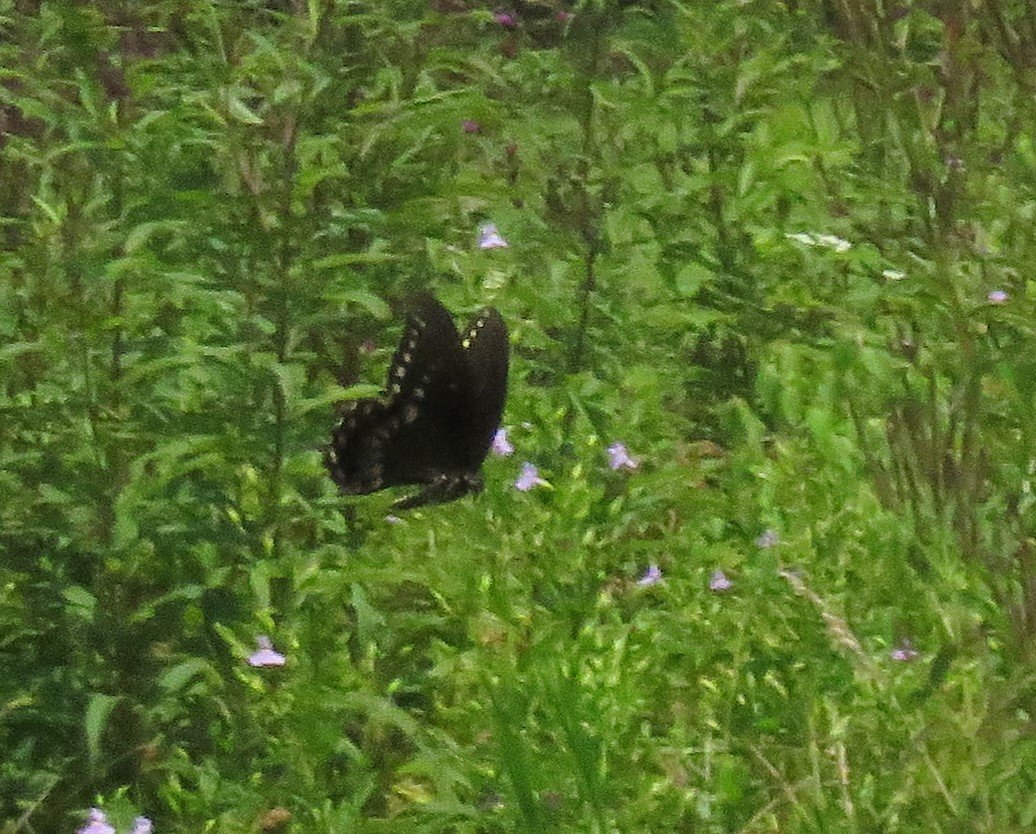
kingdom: Animalia
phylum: Arthropoda
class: Insecta
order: Lepidoptera
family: Papilionidae
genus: Pterourus
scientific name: Pterourus troilus
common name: Spicebush Swallowtail
